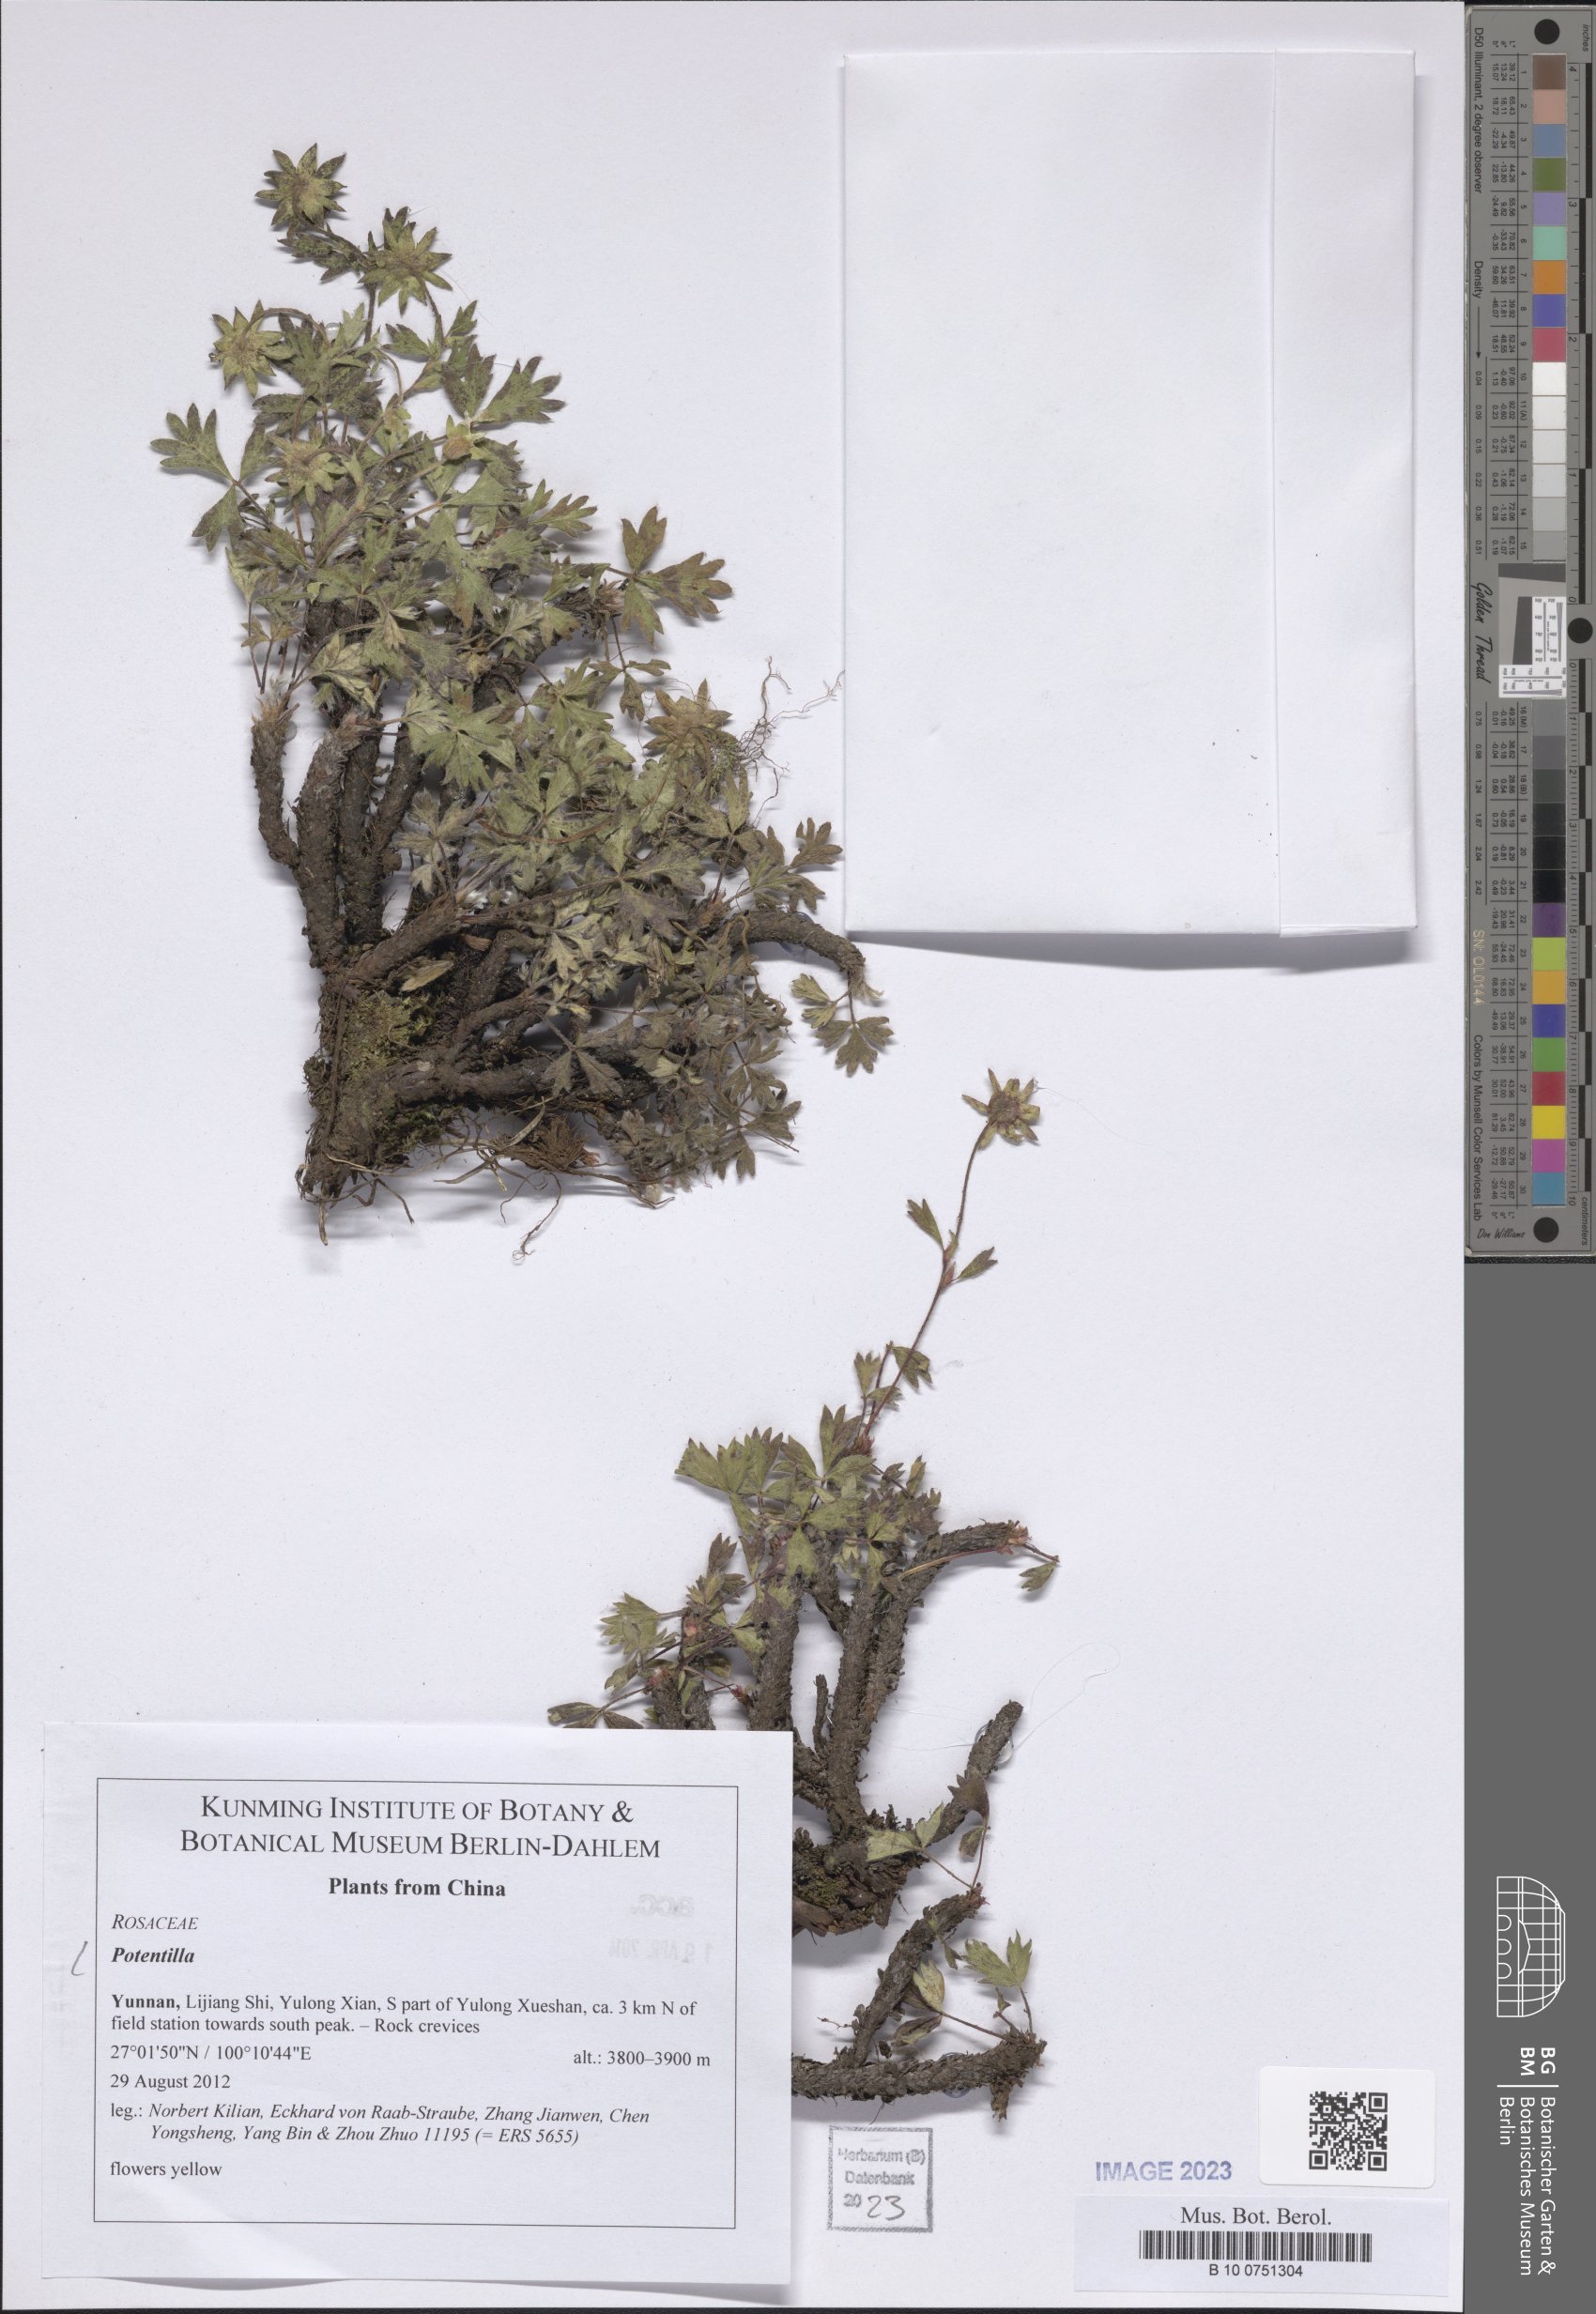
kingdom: Plantae
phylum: Tracheophyta
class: Magnoliopsida
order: Rosales
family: Rosaceae
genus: Potentilla
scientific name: Potentilla
